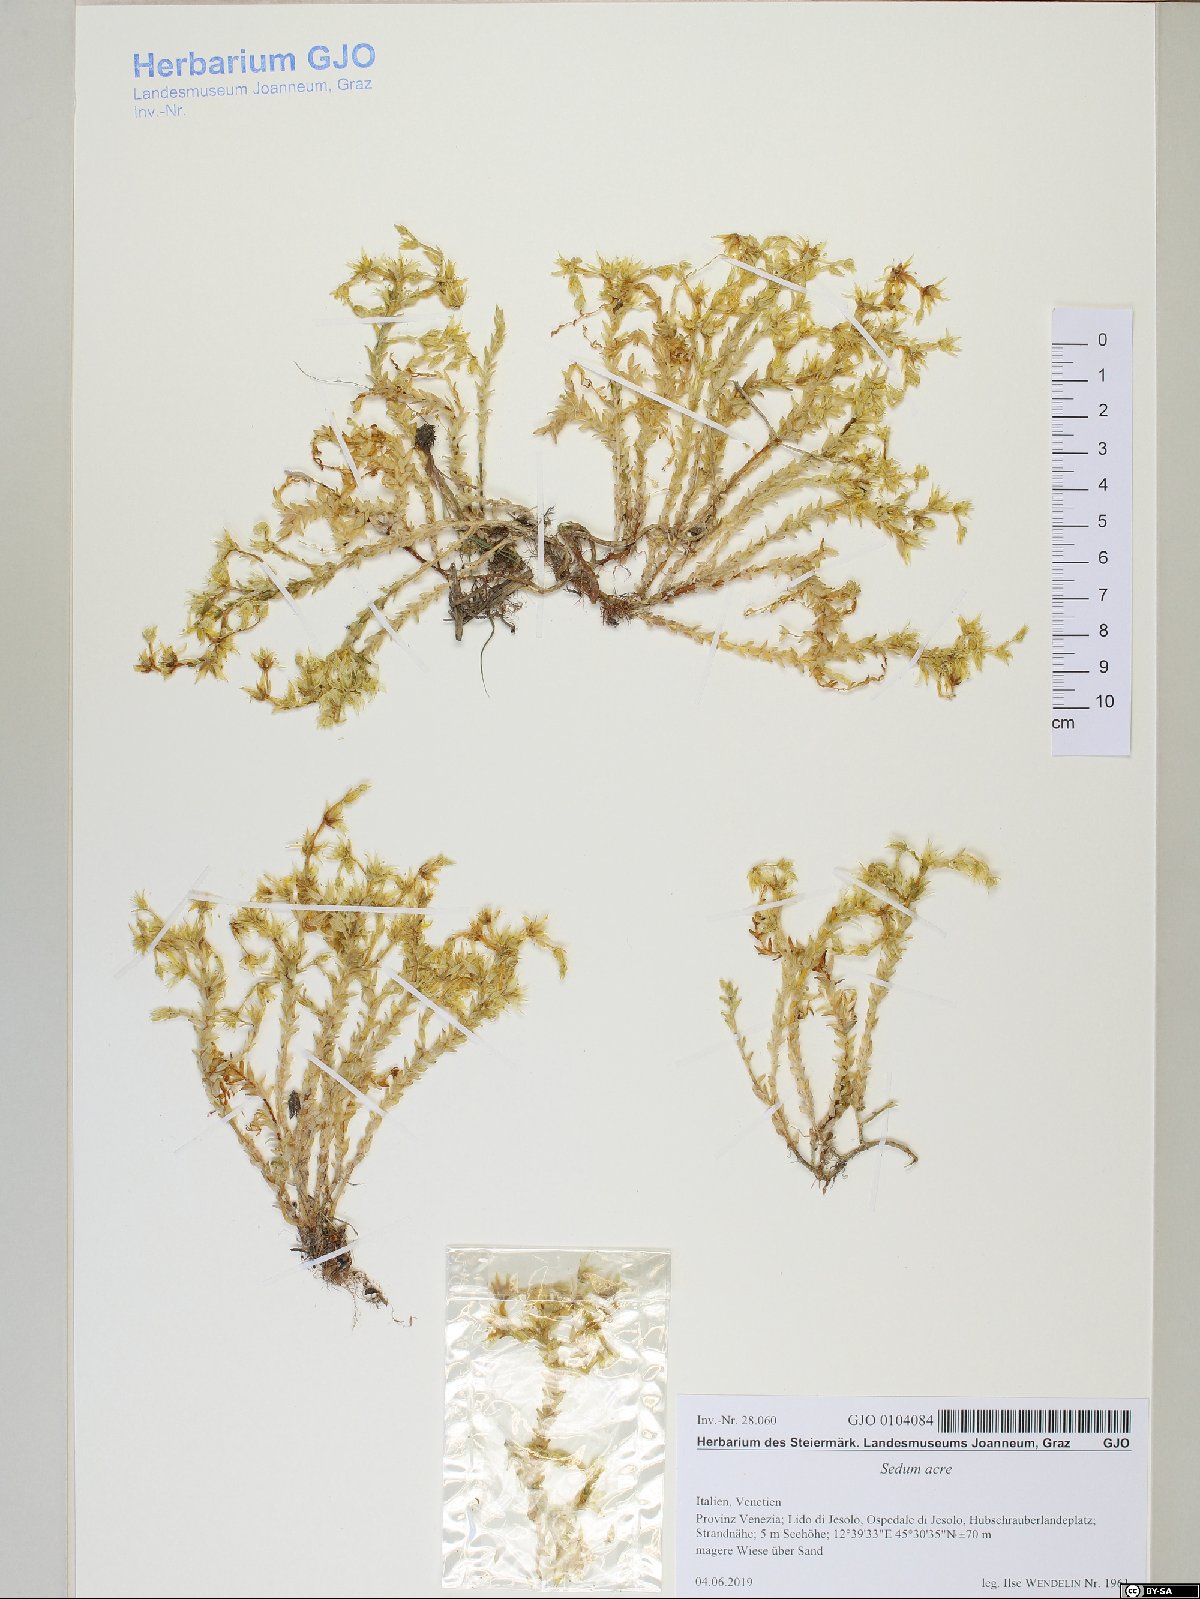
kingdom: Plantae
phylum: Tracheophyta
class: Magnoliopsida
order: Saxifragales
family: Crassulaceae
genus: Sedum
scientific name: Sedum acre
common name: Biting stonecrop
